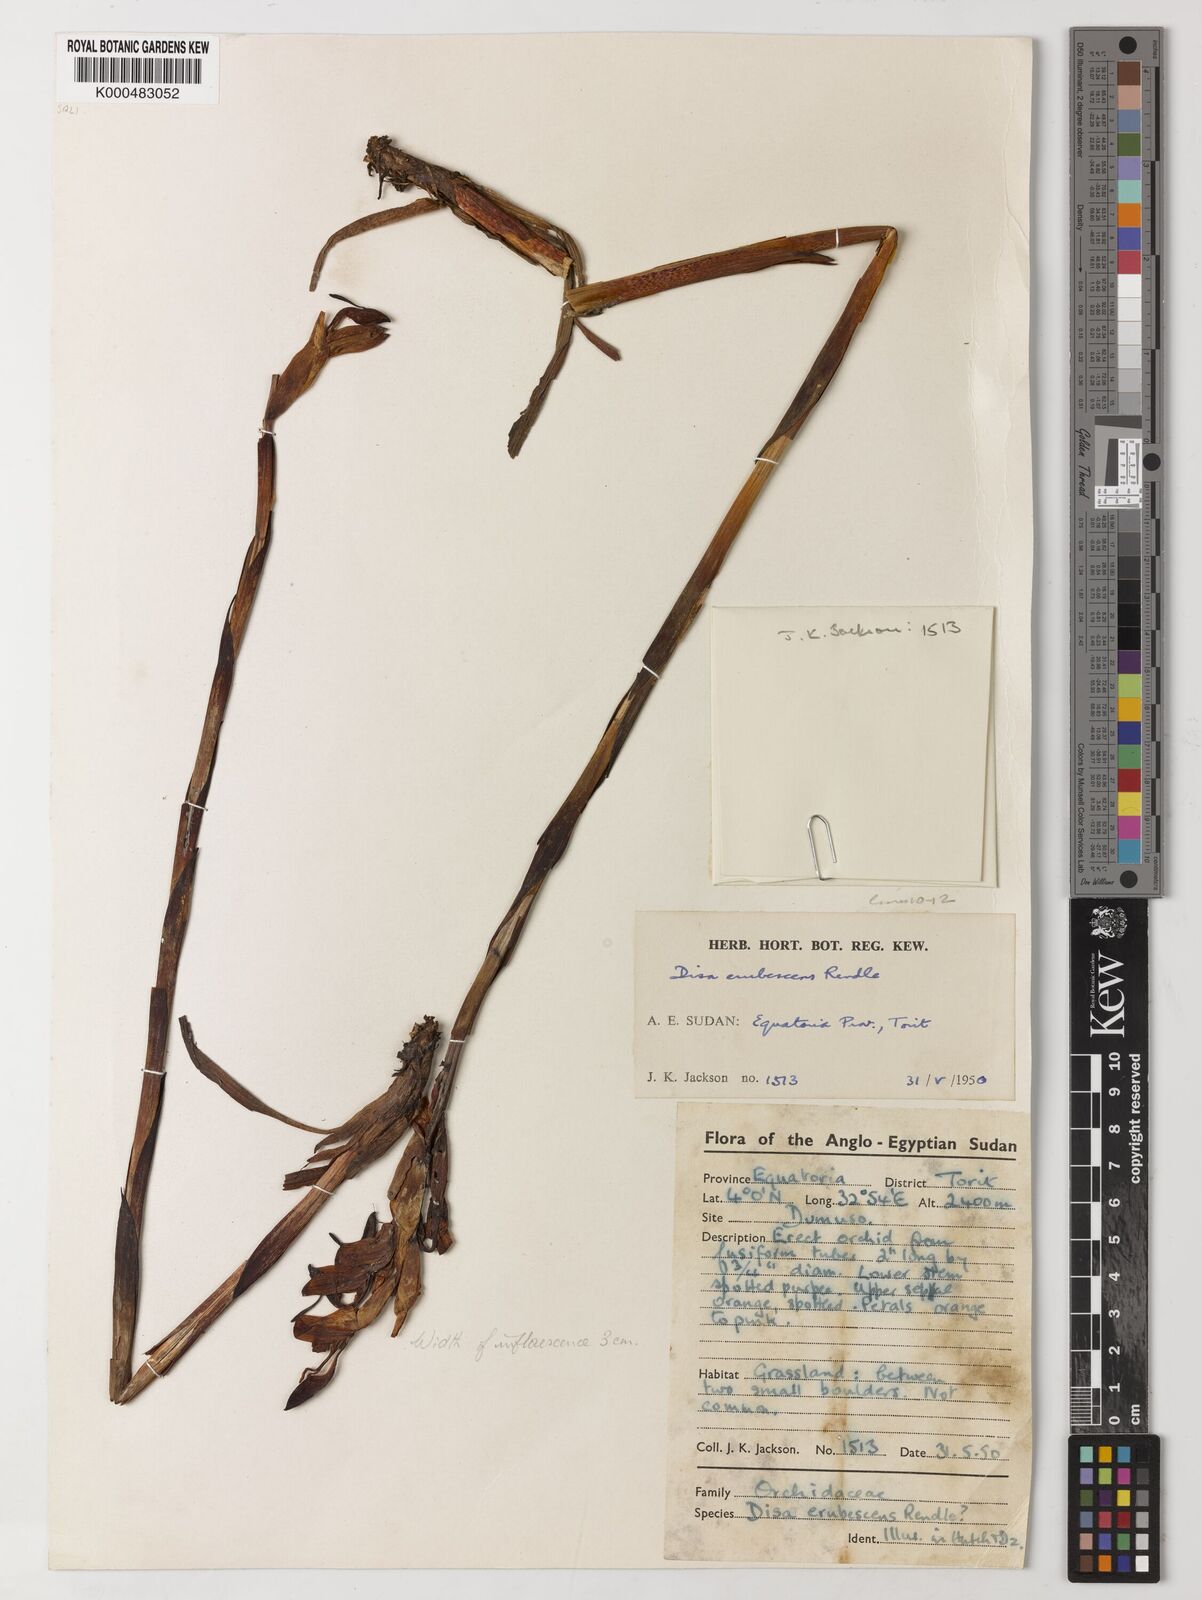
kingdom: Plantae
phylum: Tracheophyta
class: Liliopsida
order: Asparagales
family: Orchidaceae
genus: Disa
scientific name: Disa erubescens
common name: The rose disa
